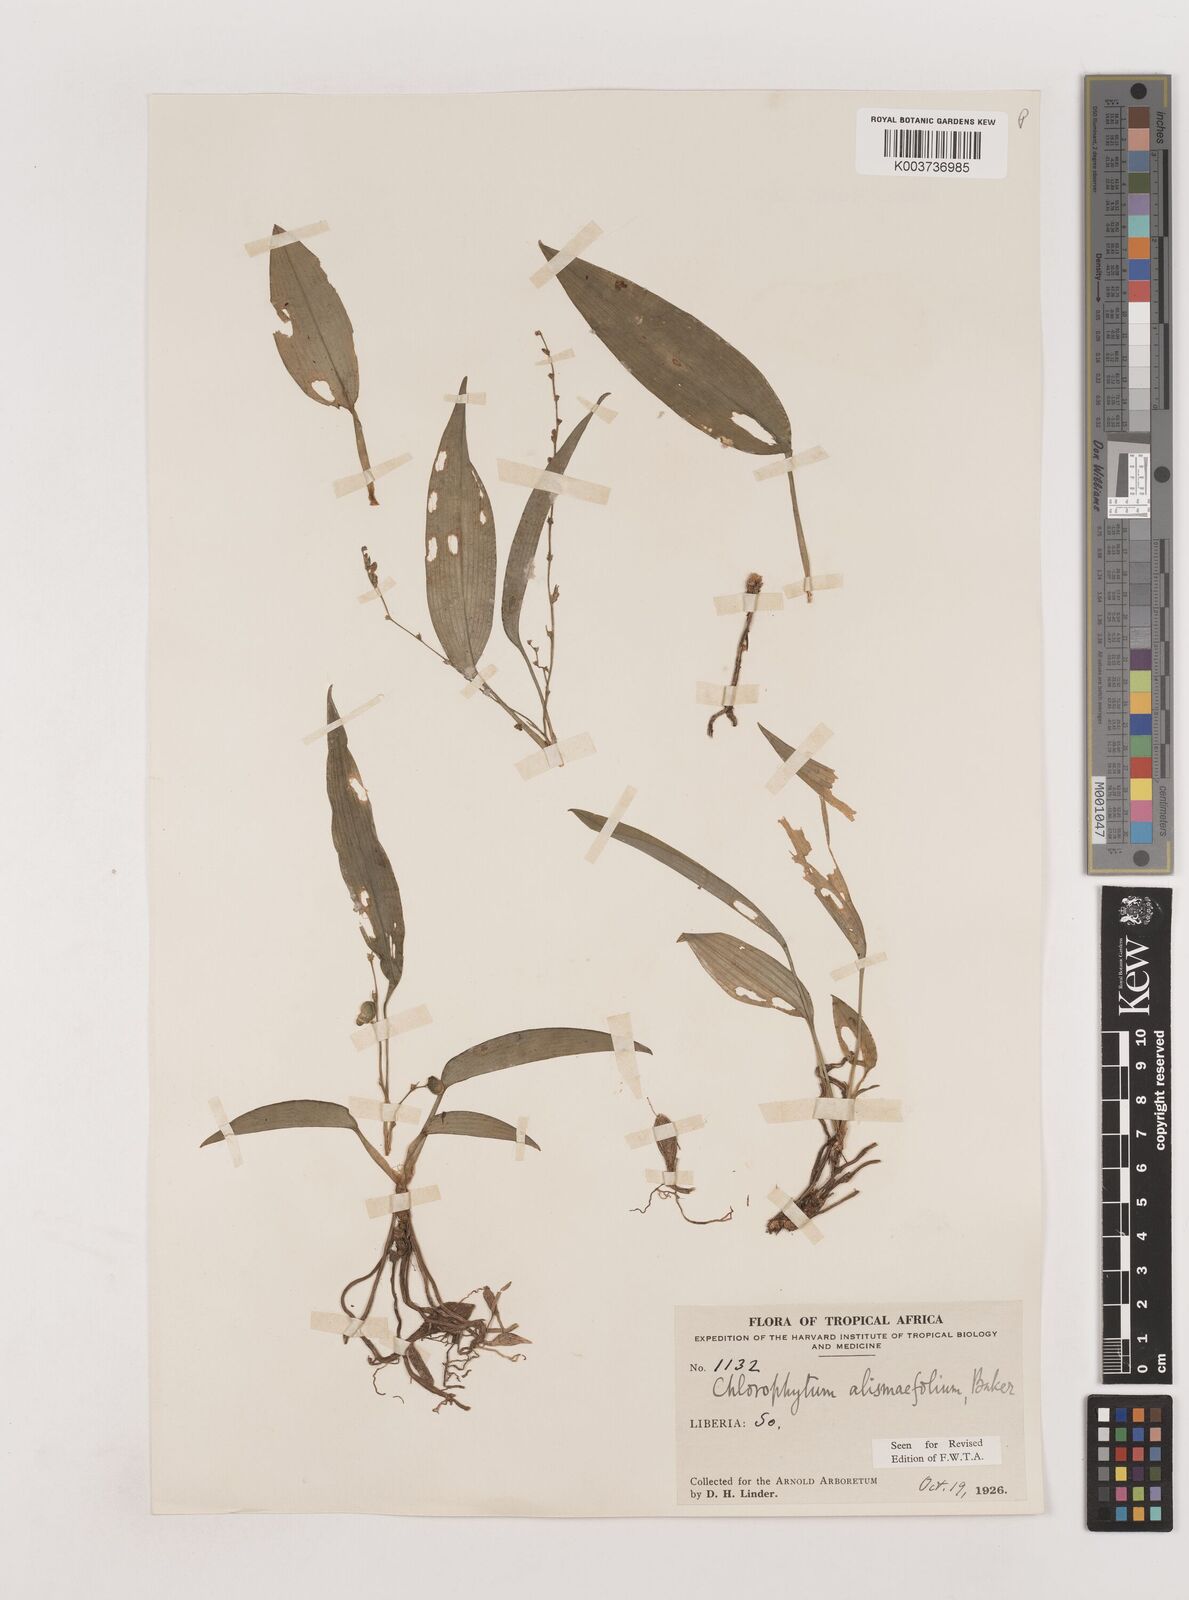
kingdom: Plantae
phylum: Tracheophyta
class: Liliopsida
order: Asparagales
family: Asparagaceae
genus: Chlorophytum
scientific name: Chlorophytum alismifolium
